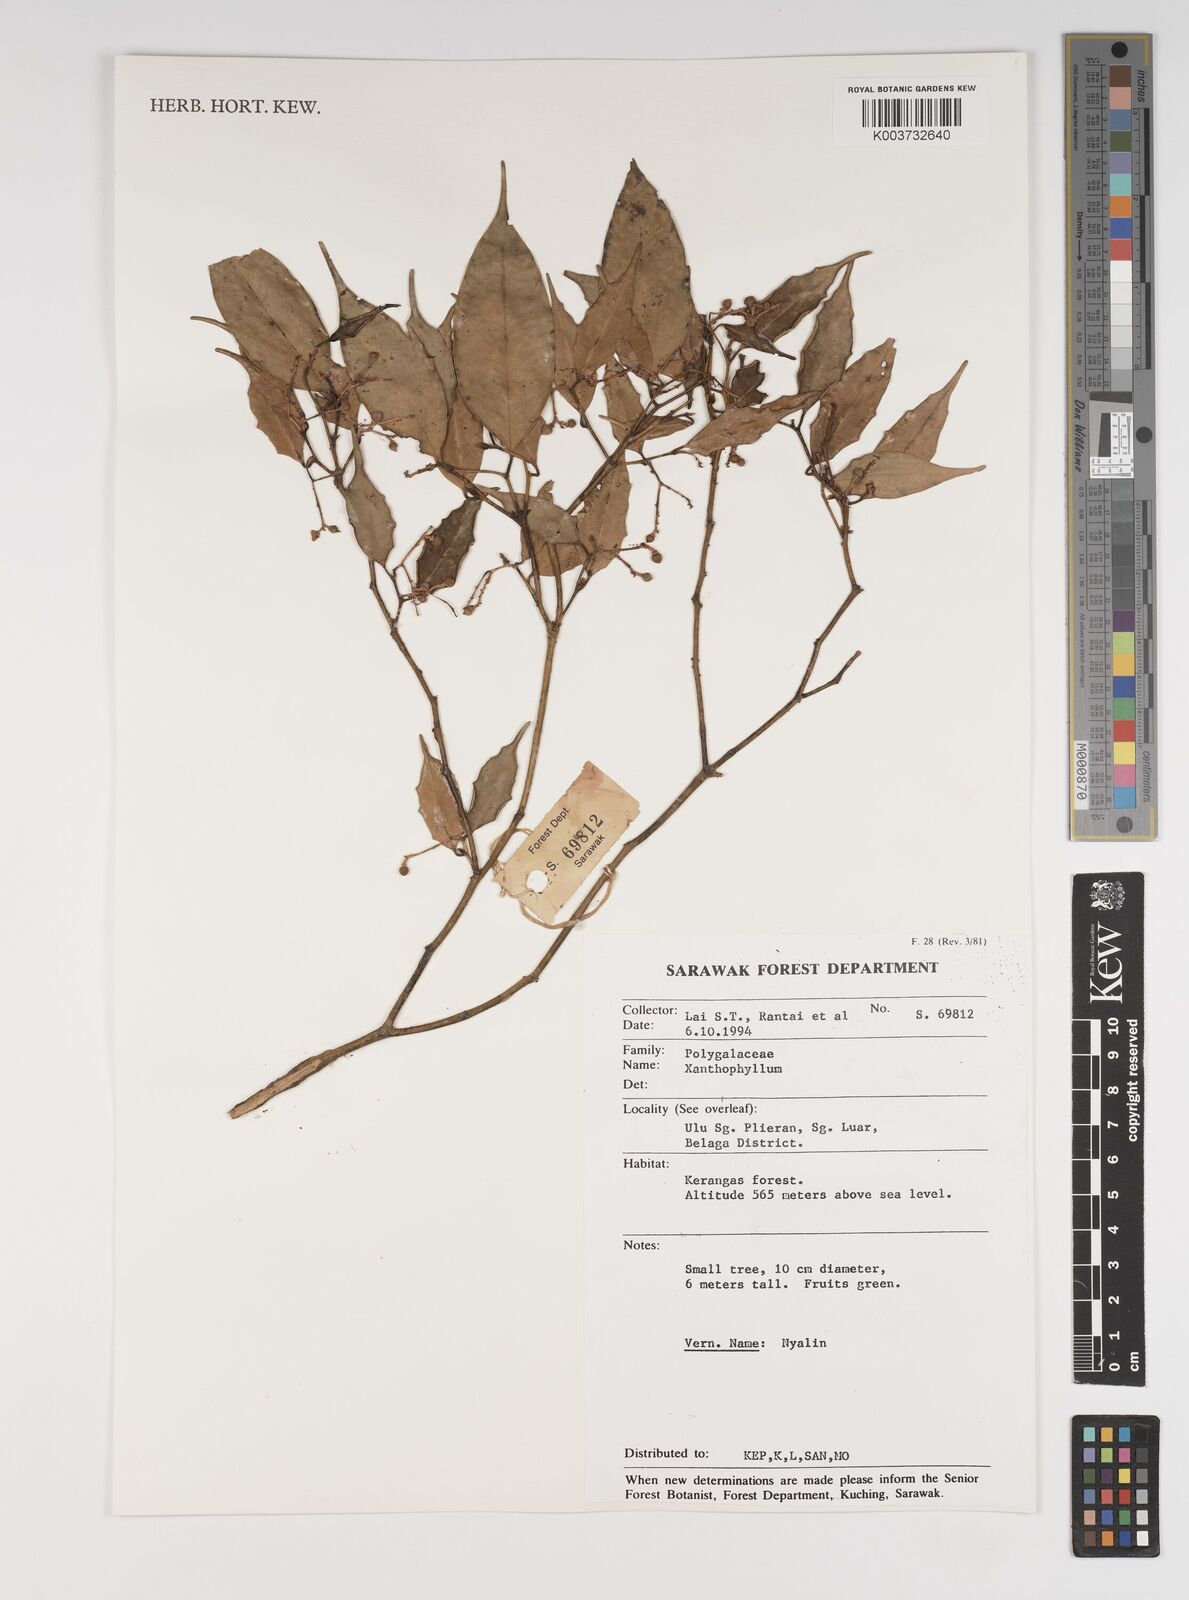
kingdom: Plantae
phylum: Tracheophyta
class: Magnoliopsida
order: Fabales
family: Polygalaceae
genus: Xanthophyllum
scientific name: Xanthophyllum
